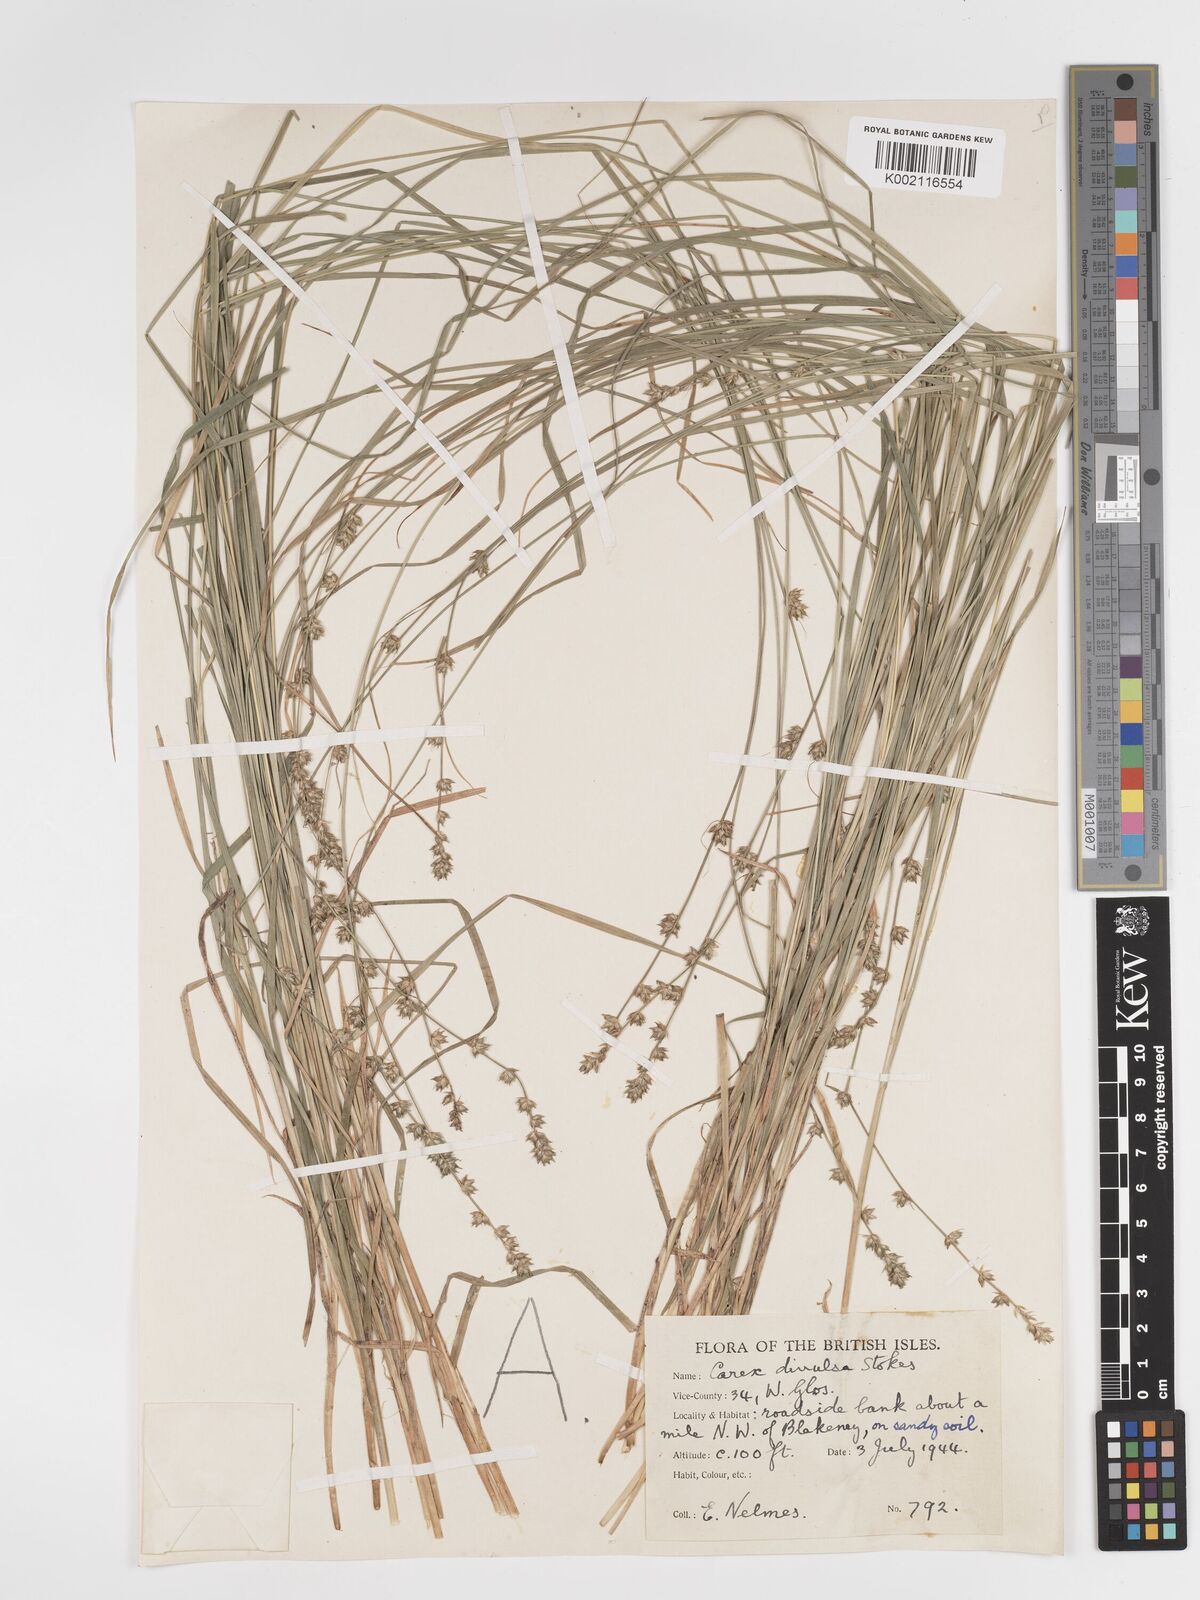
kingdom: Plantae
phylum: Tracheophyta
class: Liliopsida
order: Poales
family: Cyperaceae
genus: Carex
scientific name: Carex divulsa
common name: Grassland sedge
